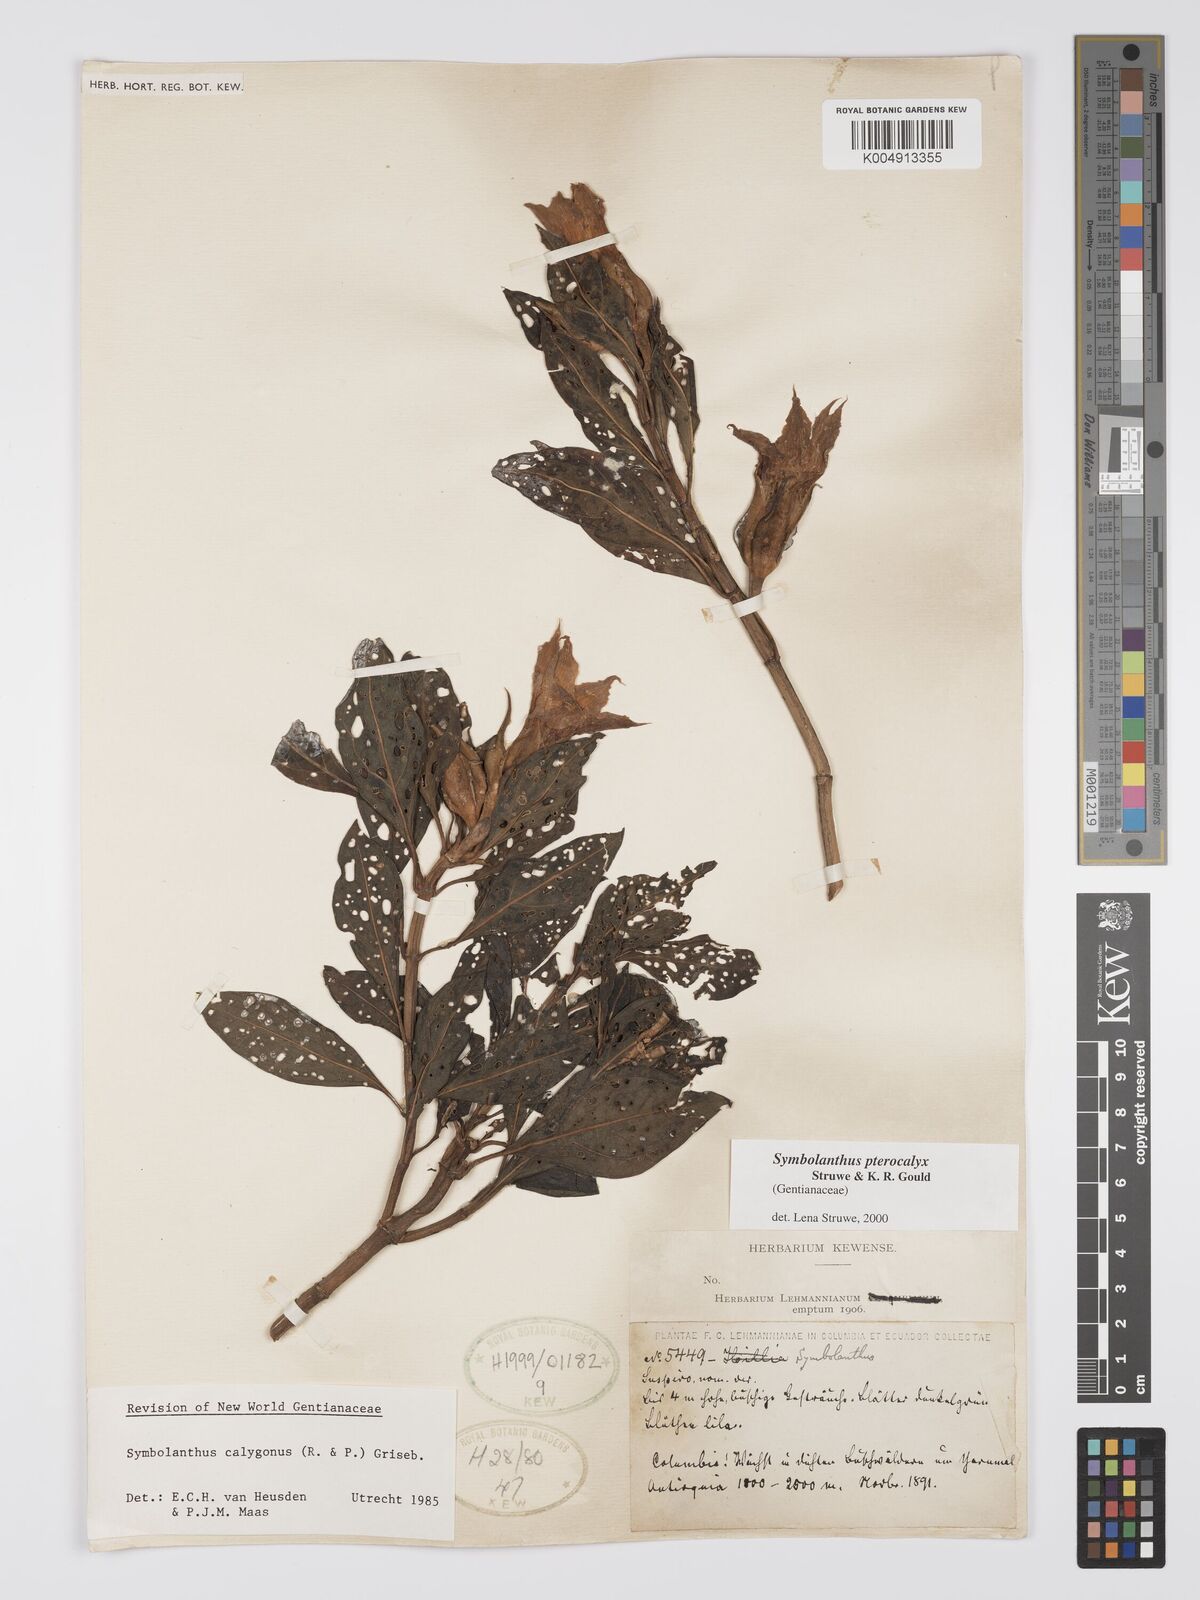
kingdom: Plantae
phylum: Tracheophyta
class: Magnoliopsida
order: Gentianales
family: Gentianaceae
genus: Symbolanthus
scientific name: Symbolanthus pterocalyx
